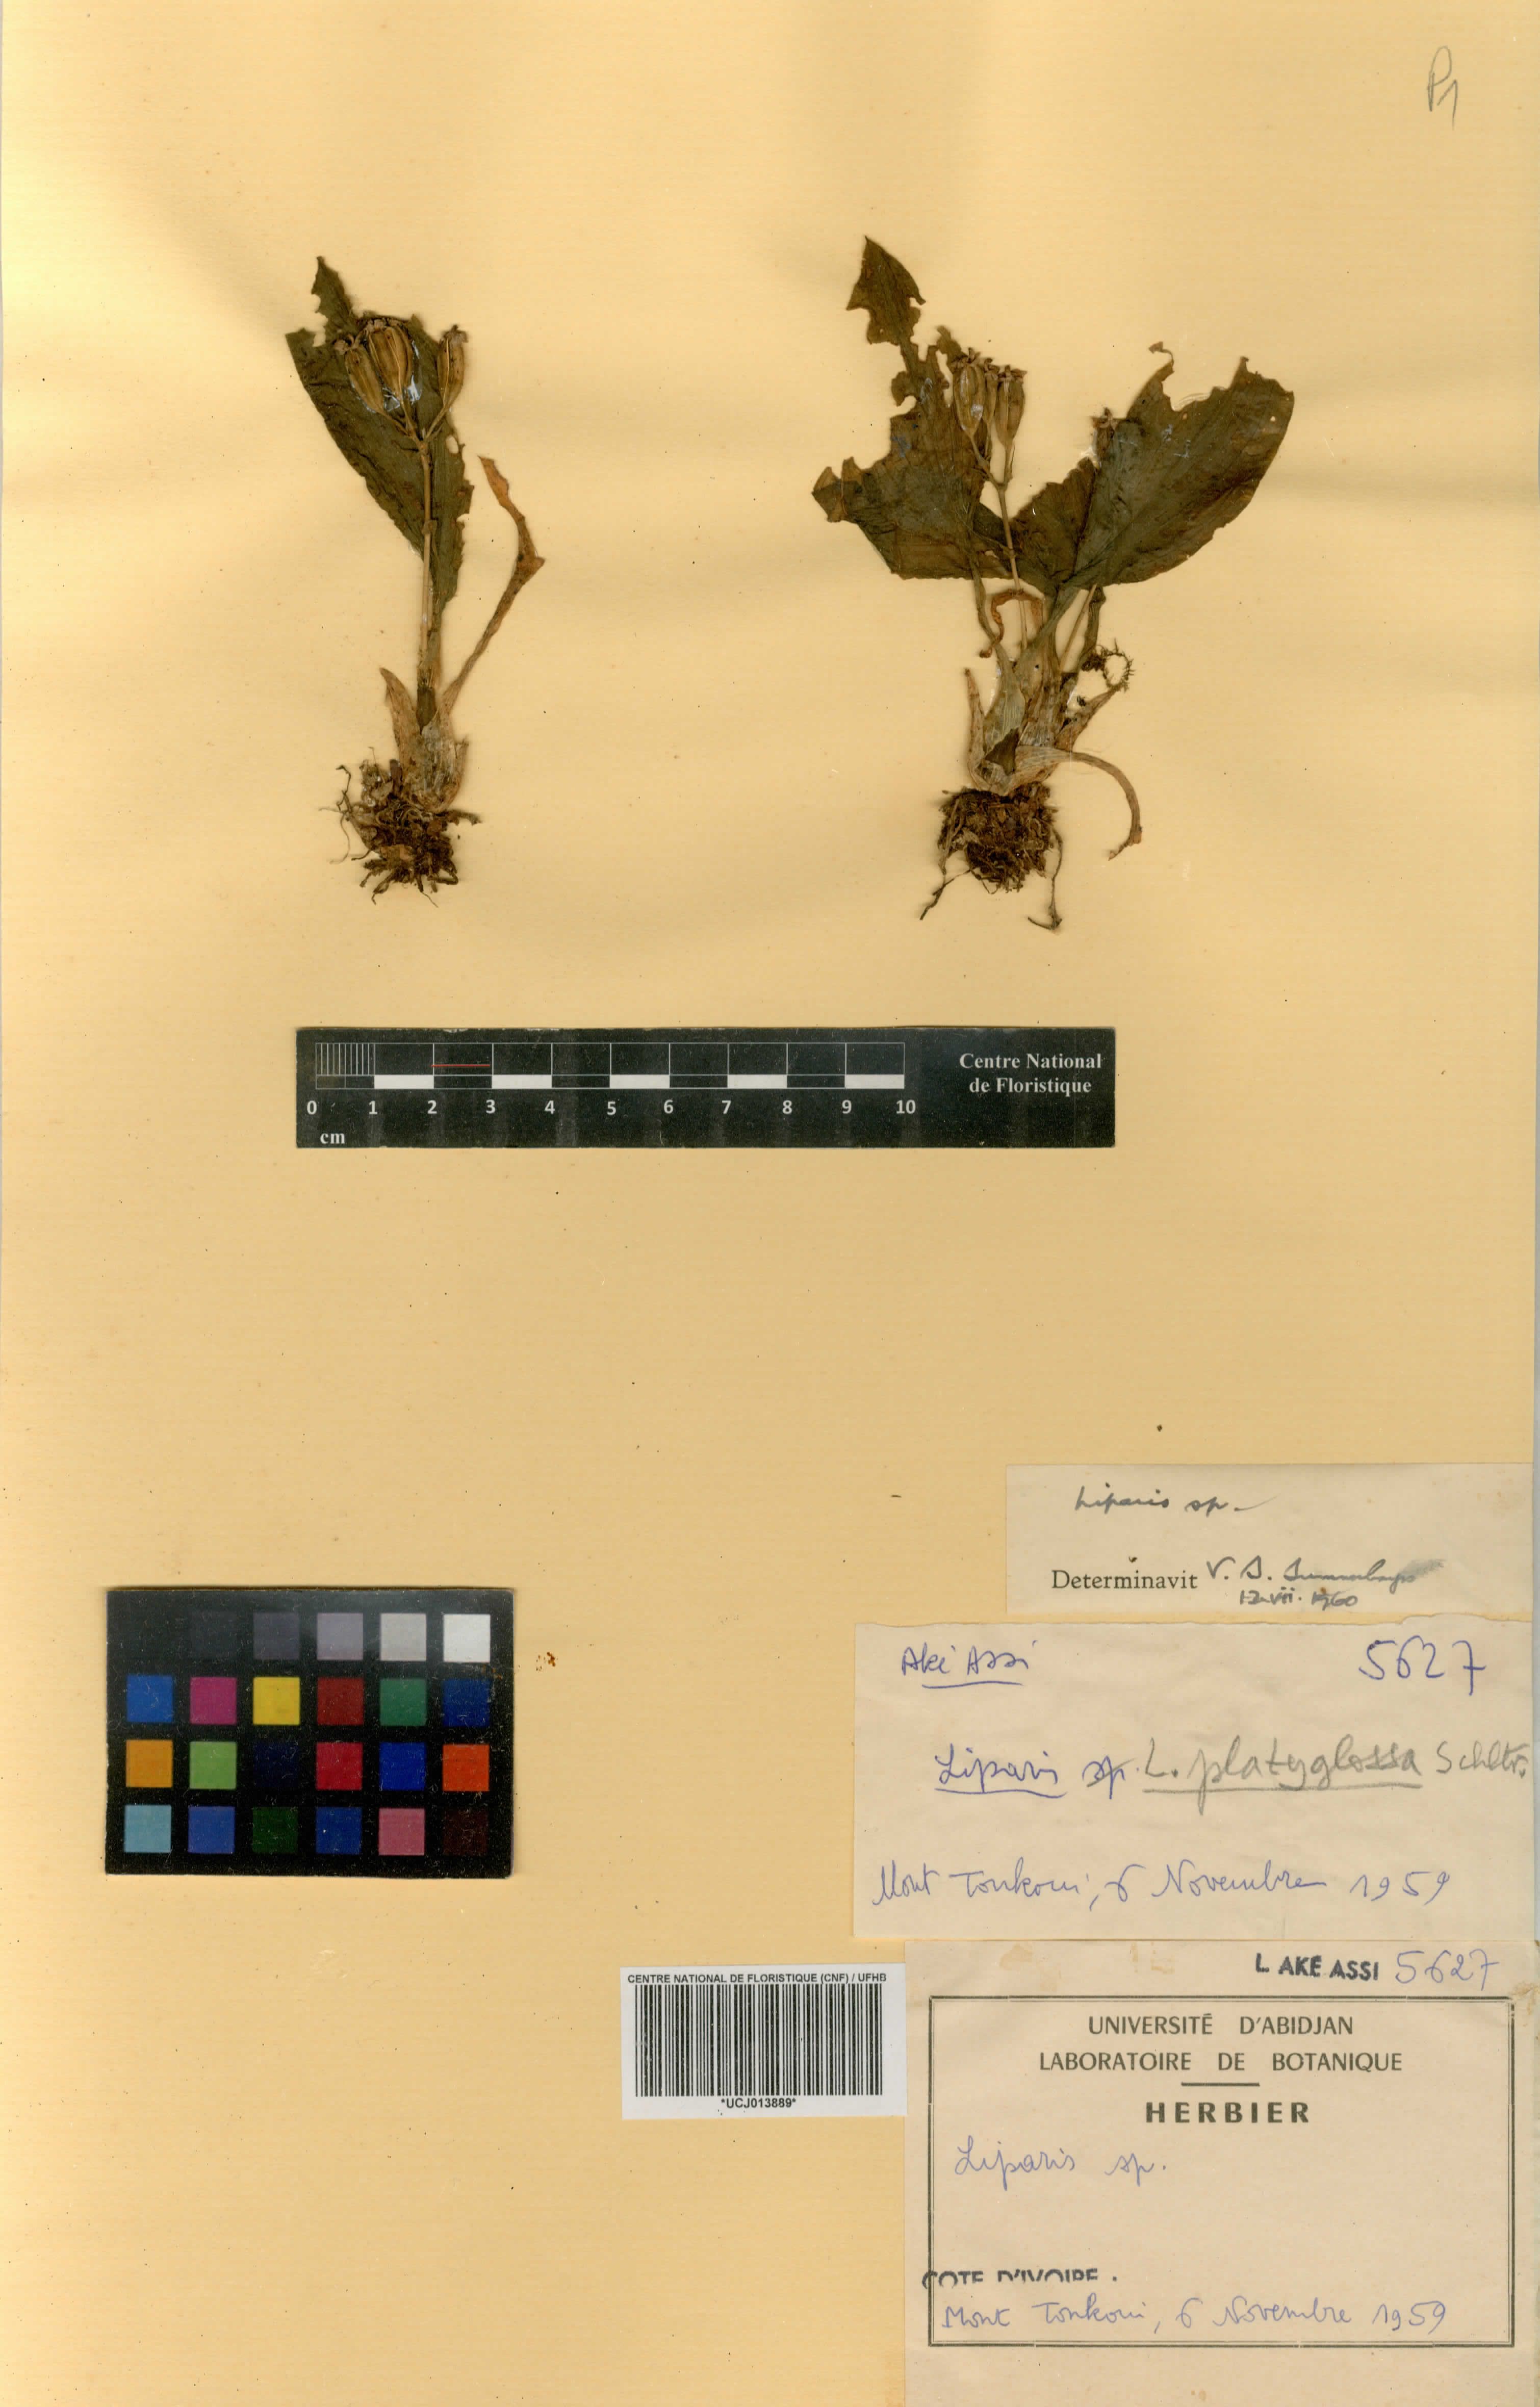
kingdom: Plantae
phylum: Tracheophyta
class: Liliopsida
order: Asparagales
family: Orchidaceae
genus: Liparis
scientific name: Liparis
